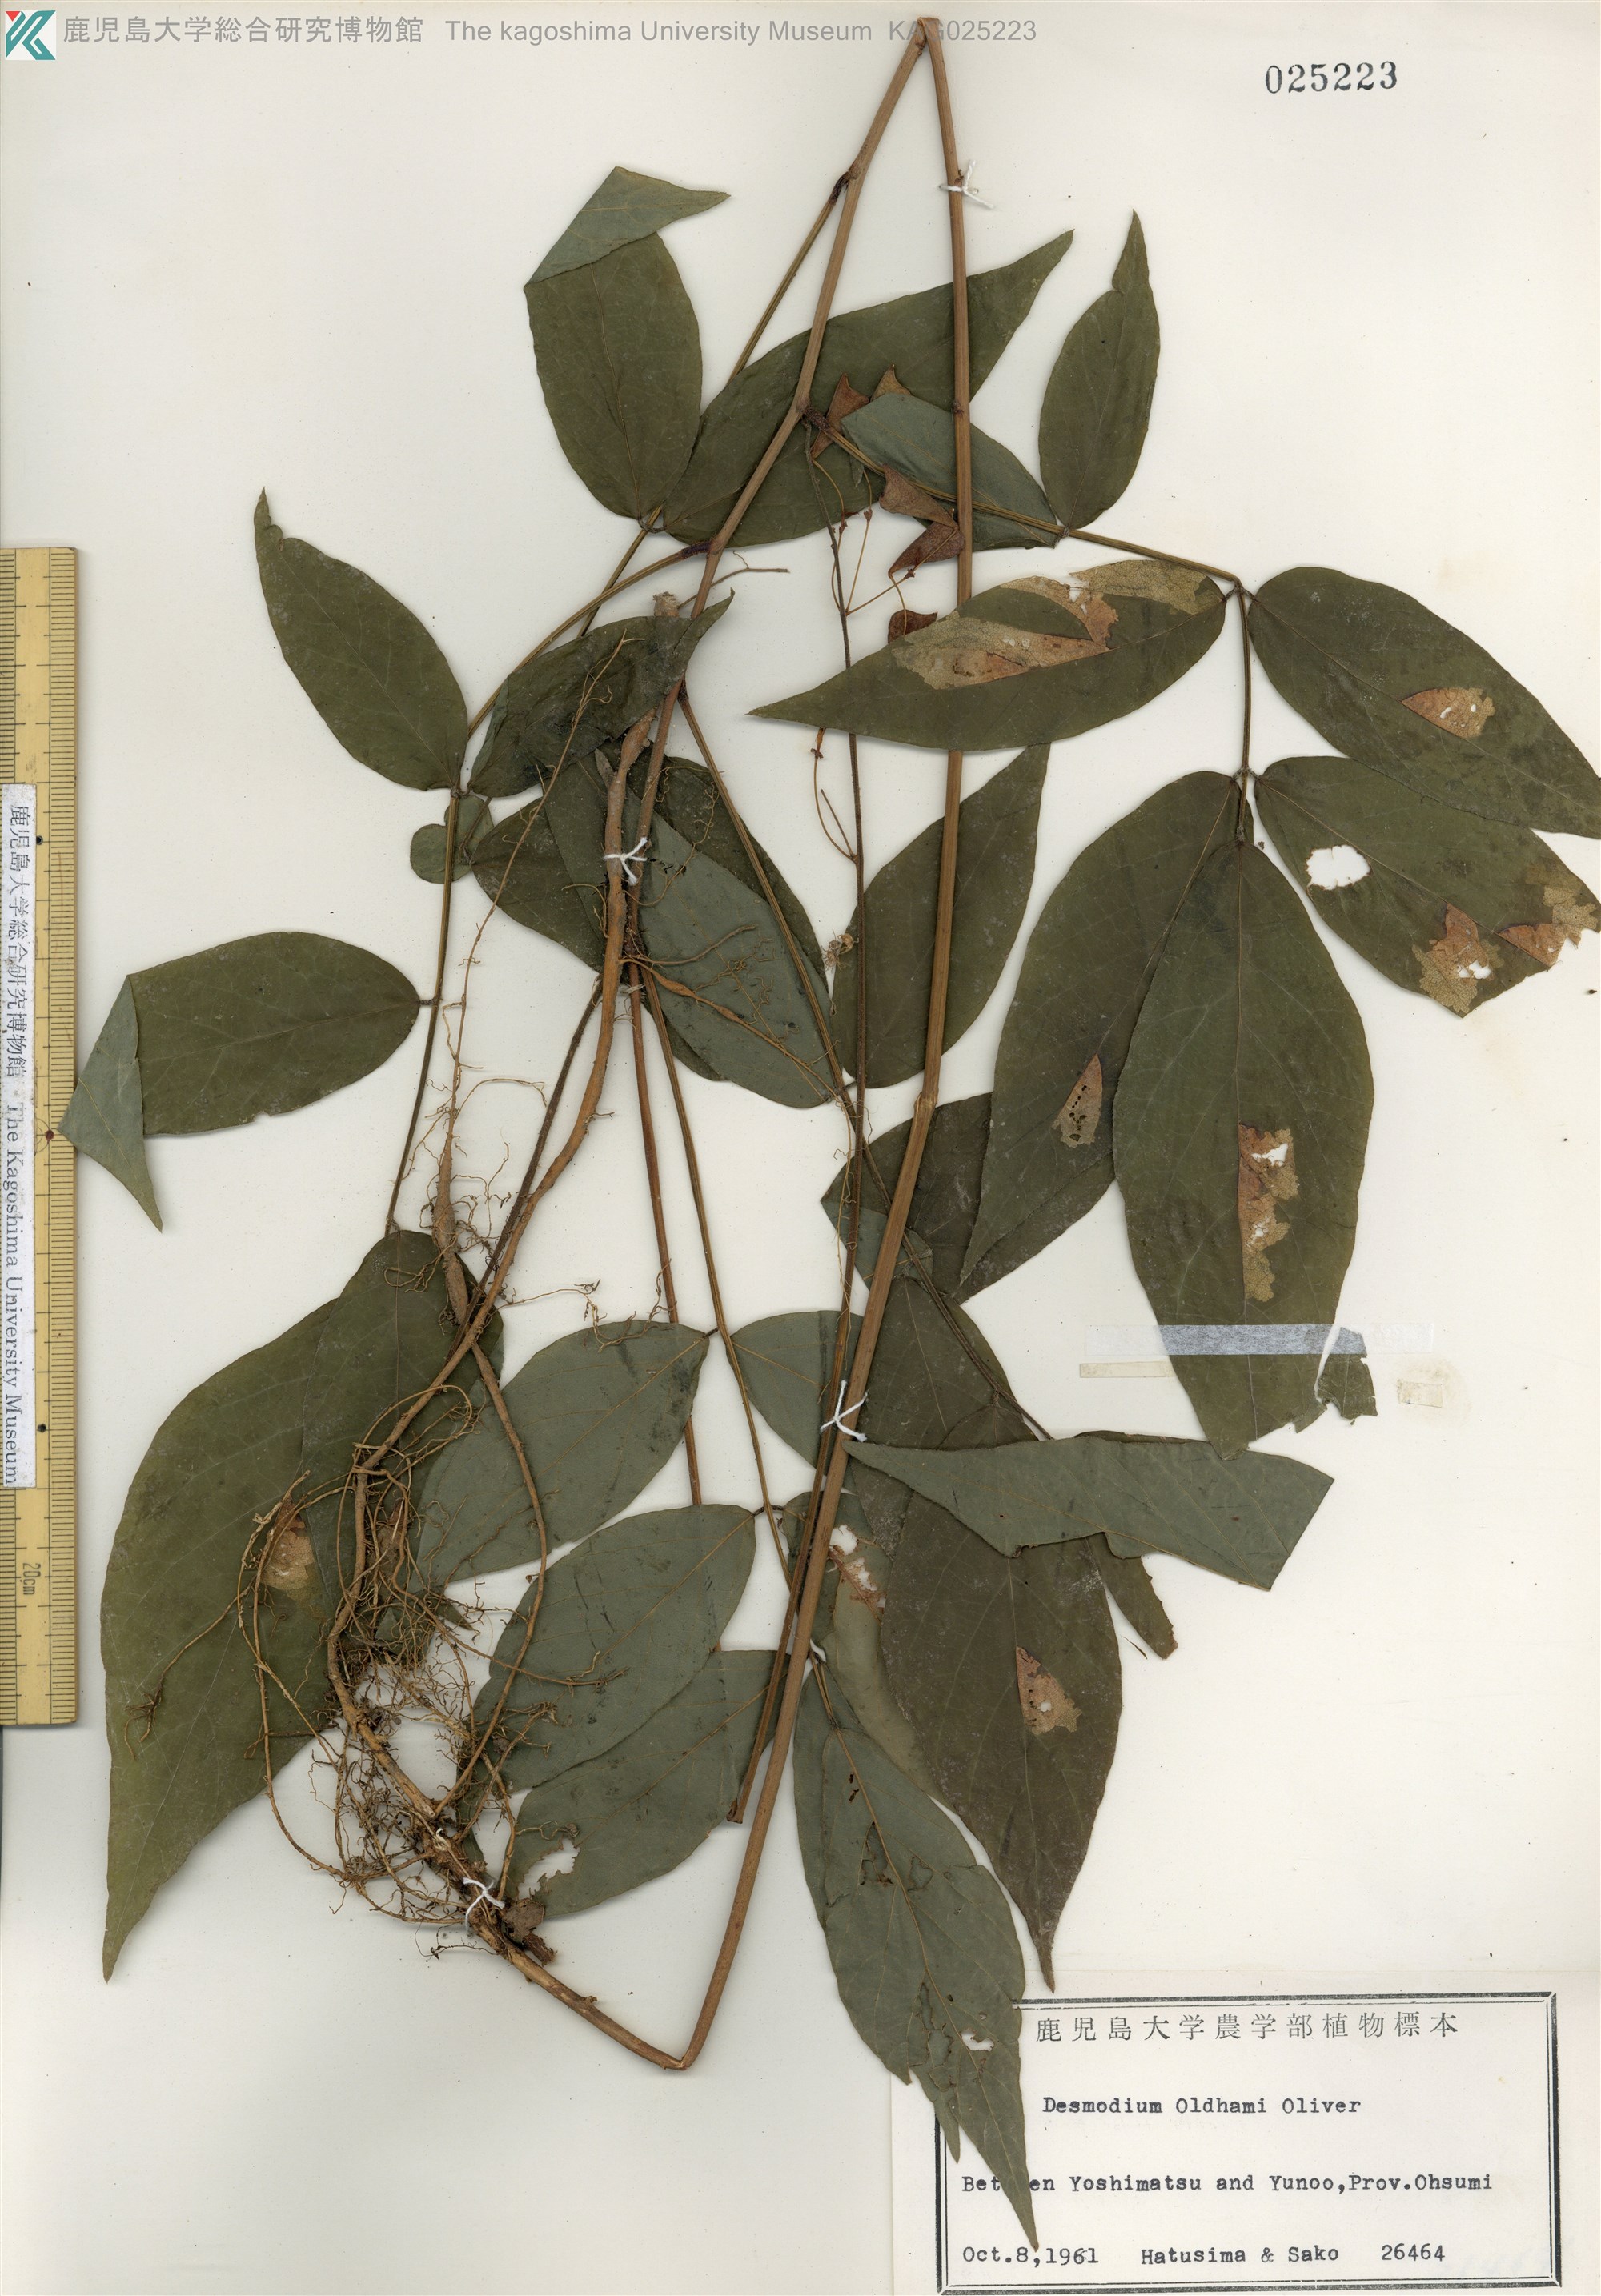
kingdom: Plantae
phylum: Tracheophyta
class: Magnoliopsida
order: Fabales
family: Fabaceae
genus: Hylodesmum
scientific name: Hylodesmum oldhamii
